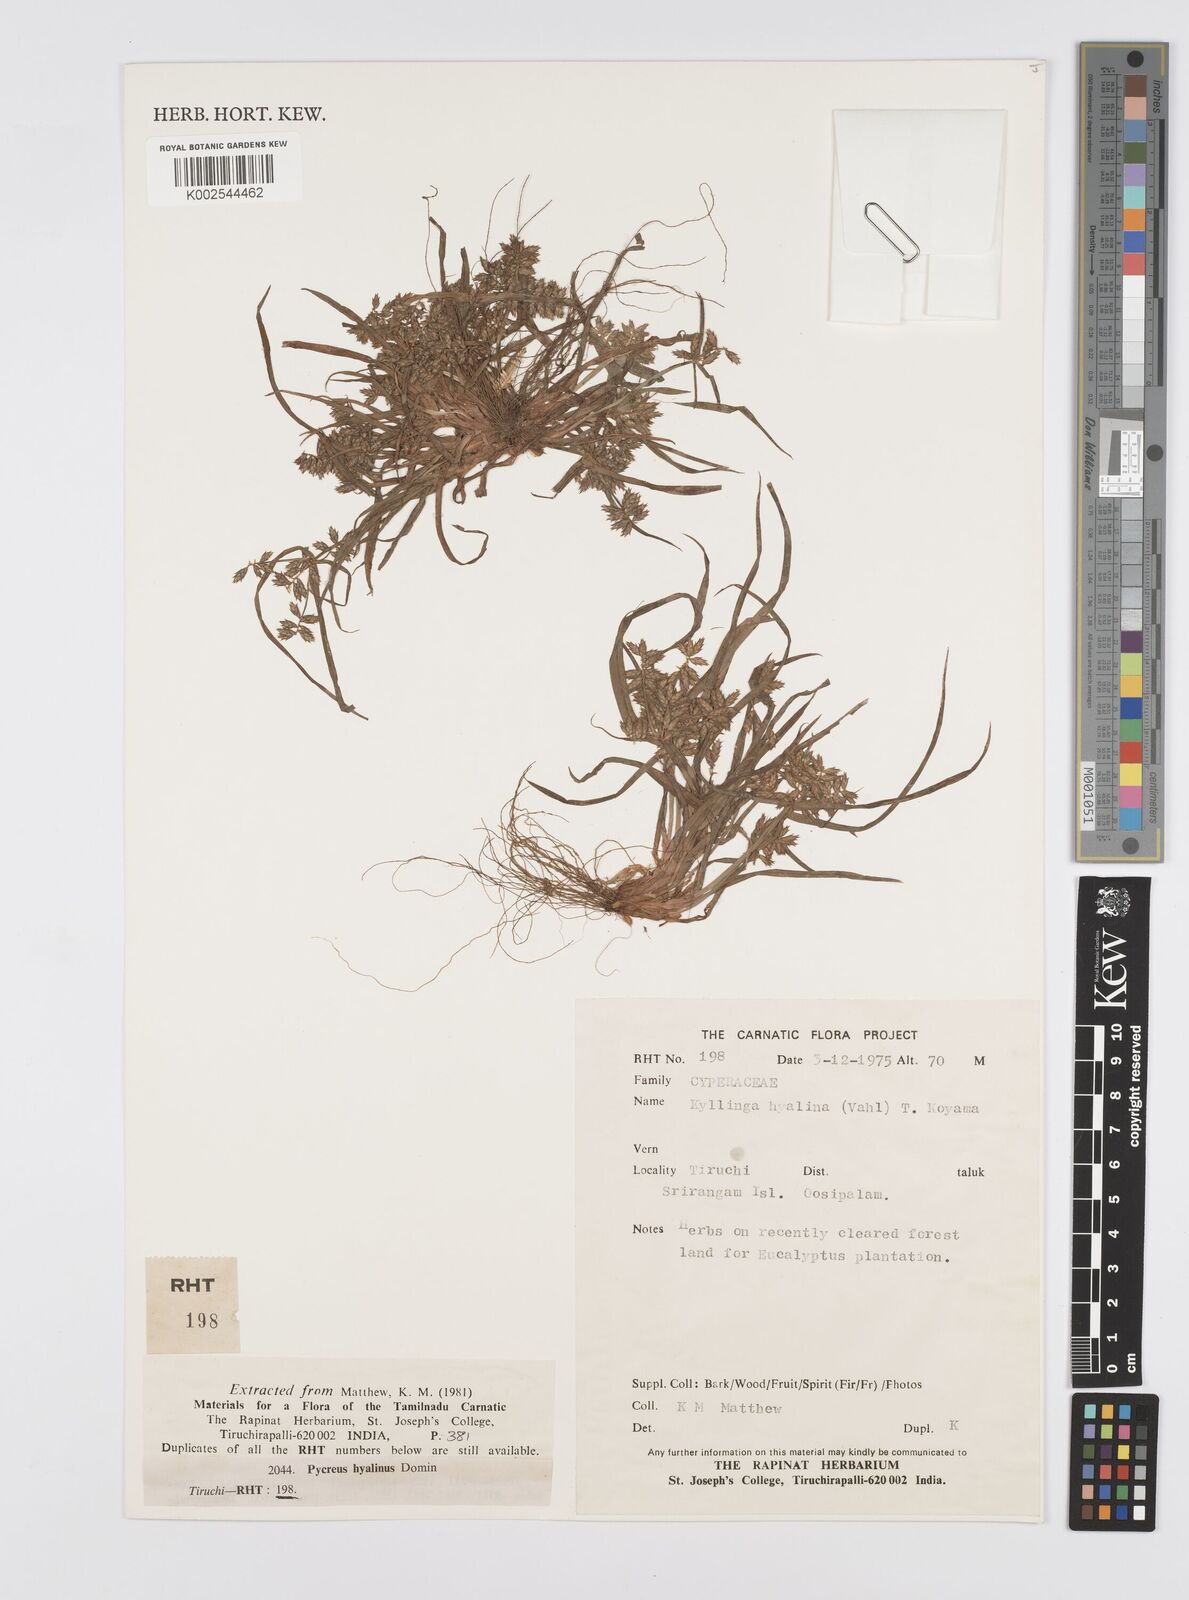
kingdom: Plantae
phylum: Tracheophyta
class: Liliopsida
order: Poales
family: Cyperaceae
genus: Cyperus
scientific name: Cyperus hyalinus
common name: Queensland sedge
